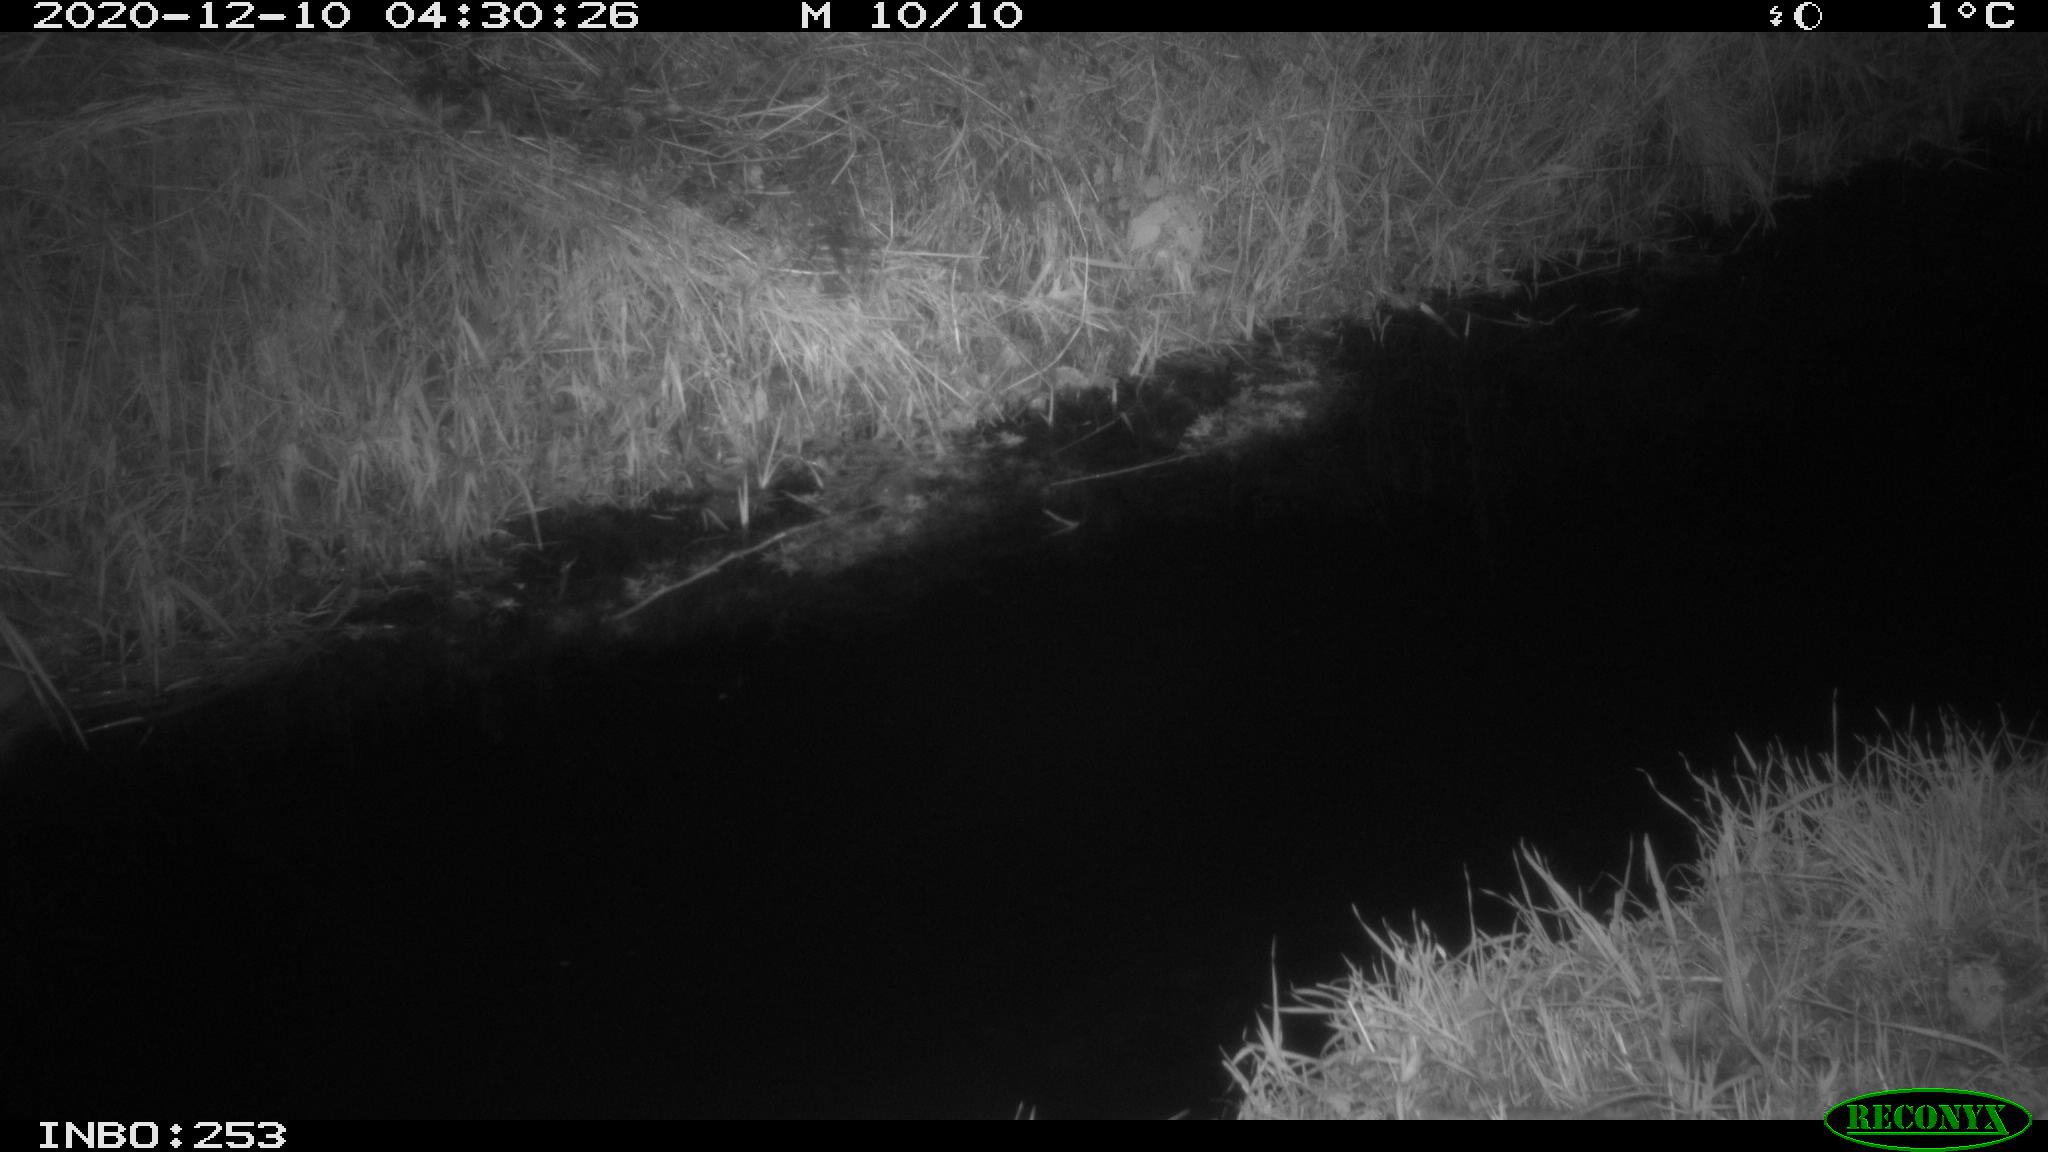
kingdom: Animalia
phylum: Chordata
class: Mammalia
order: Rodentia
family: Muridae
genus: Rattus
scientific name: Rattus norvegicus
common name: Brown rat
